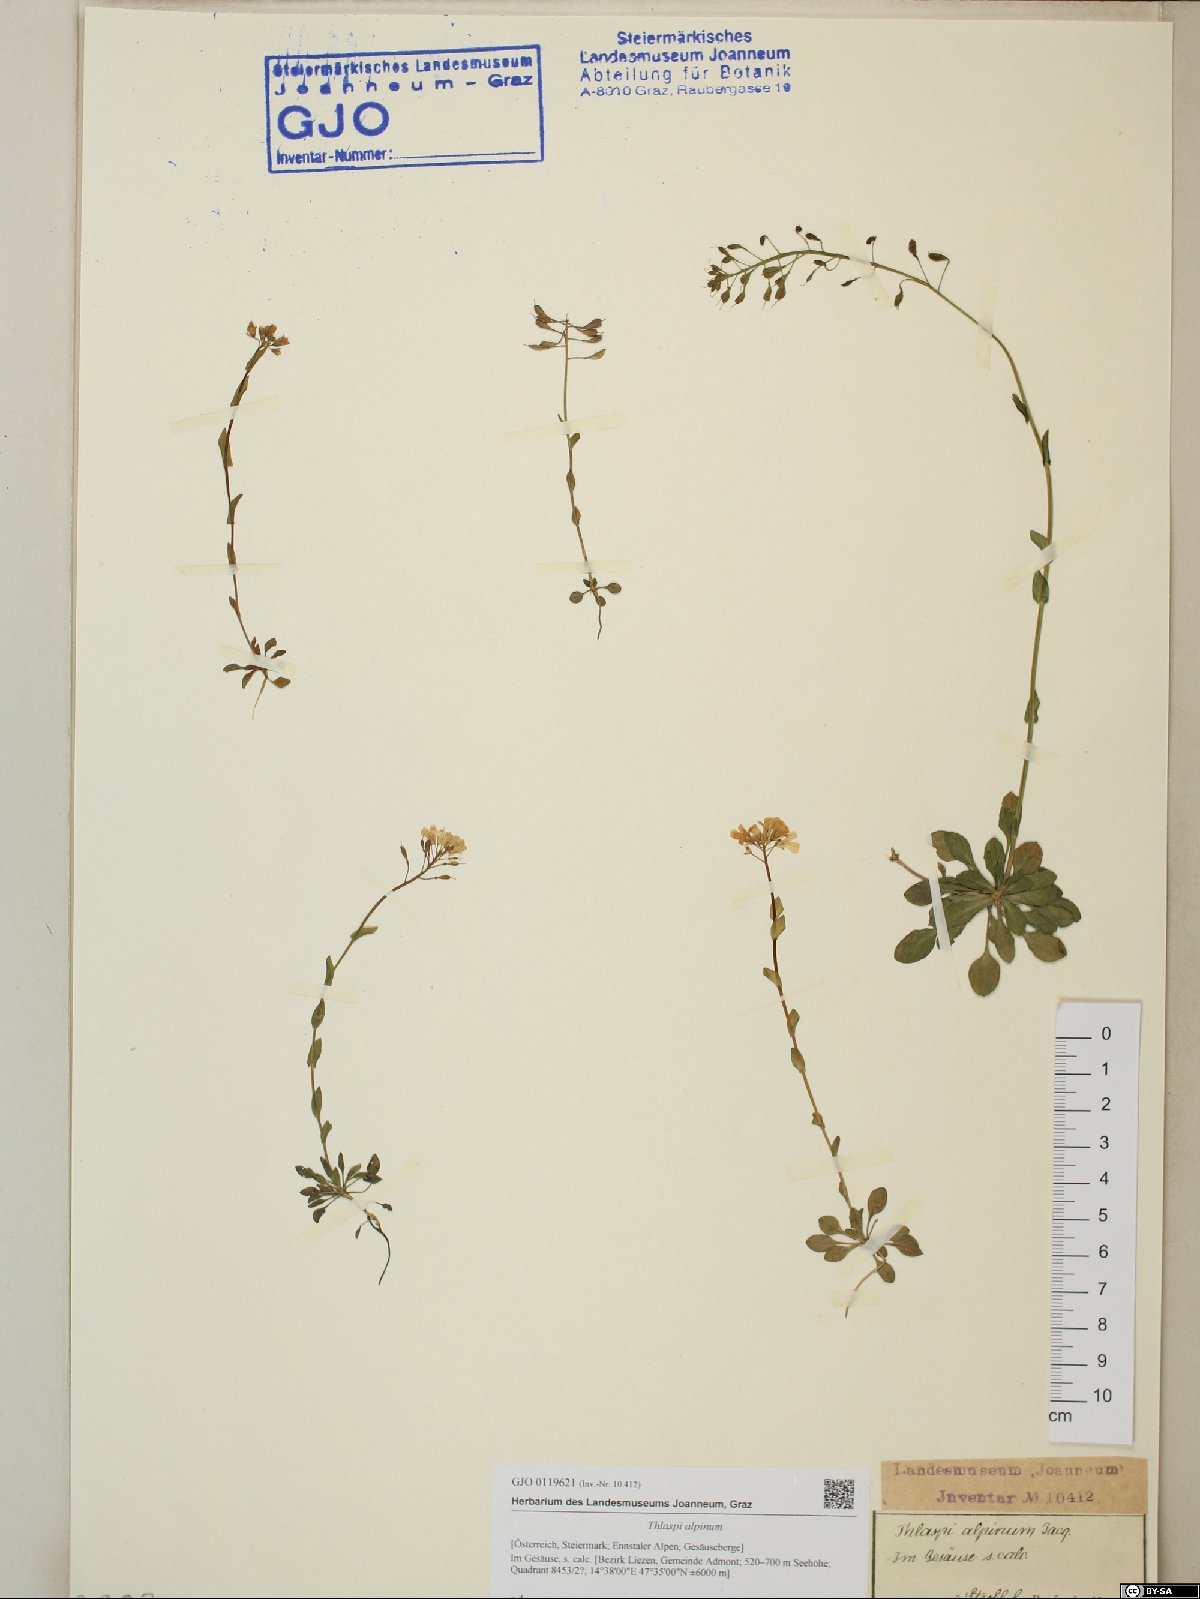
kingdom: Plantae
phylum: Tracheophyta
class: Magnoliopsida
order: Brassicales
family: Brassicaceae
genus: Noccaea
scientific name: Noccaea alpestris
